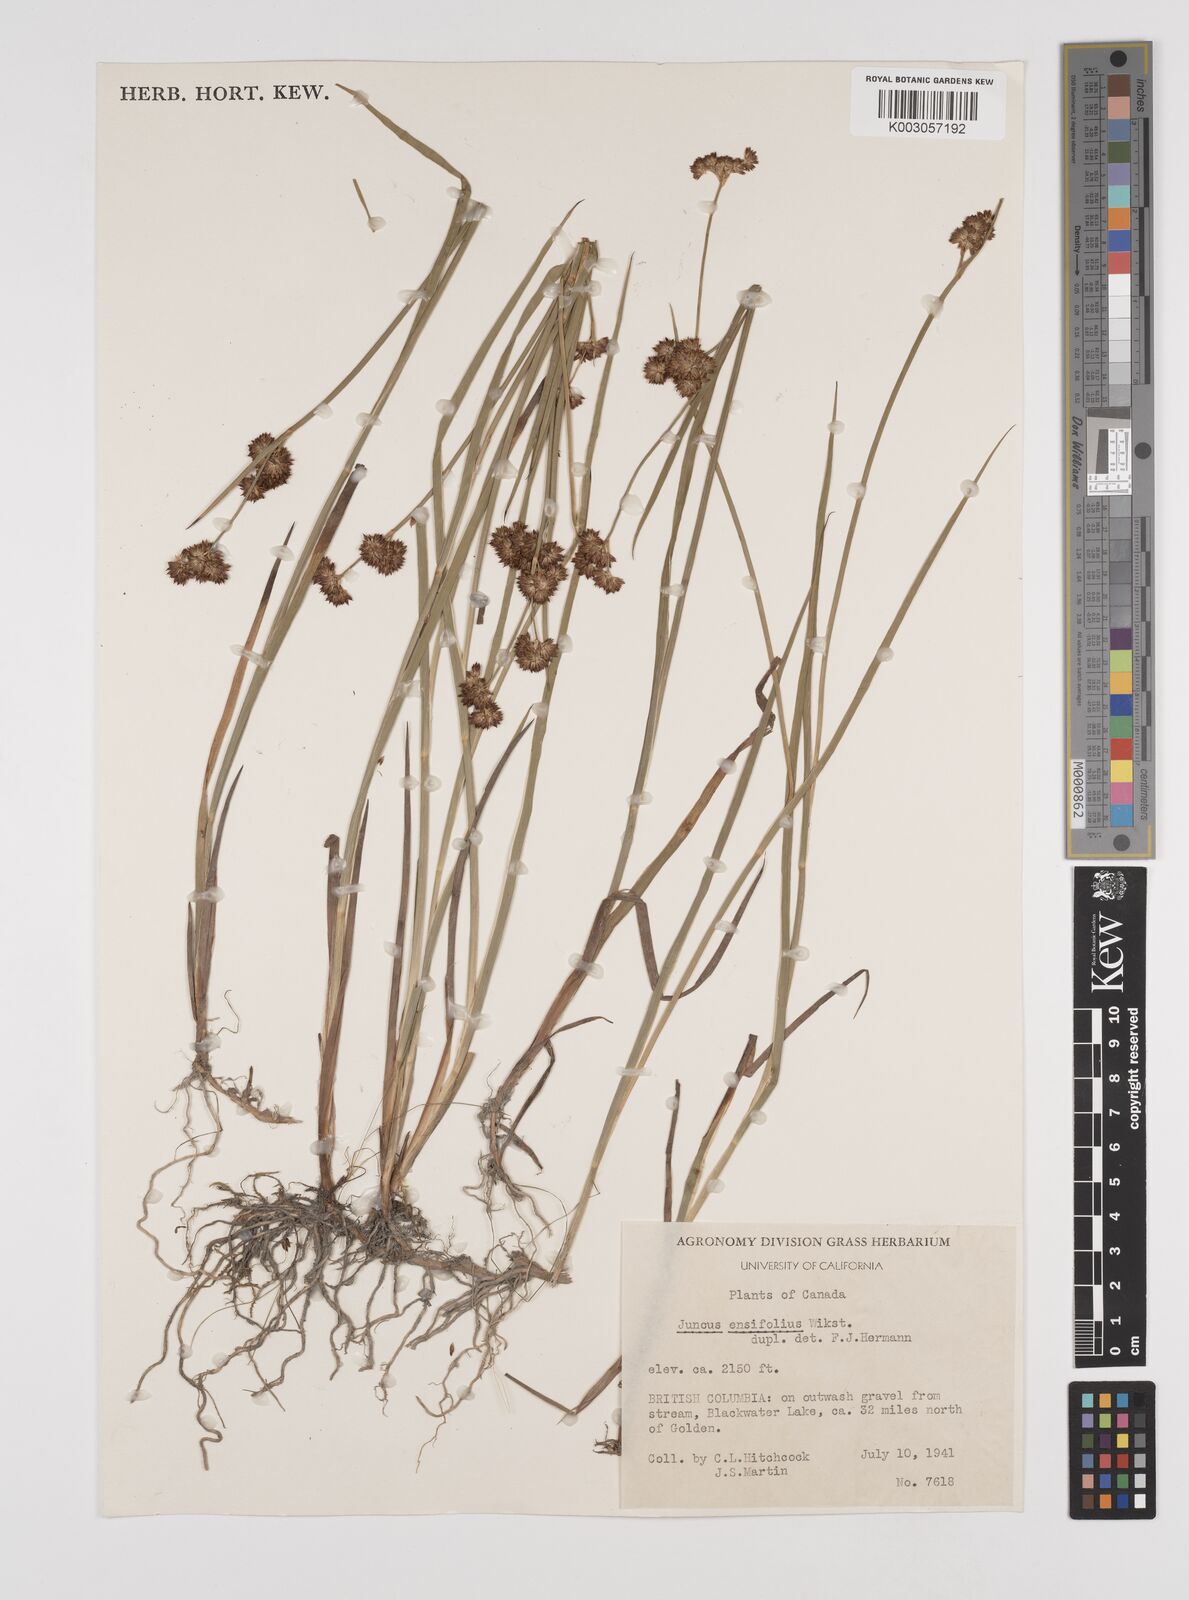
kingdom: Plantae
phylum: Tracheophyta
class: Liliopsida
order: Poales
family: Juncaceae
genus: Juncus
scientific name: Juncus ensifolius
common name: Sword-leaved rush
